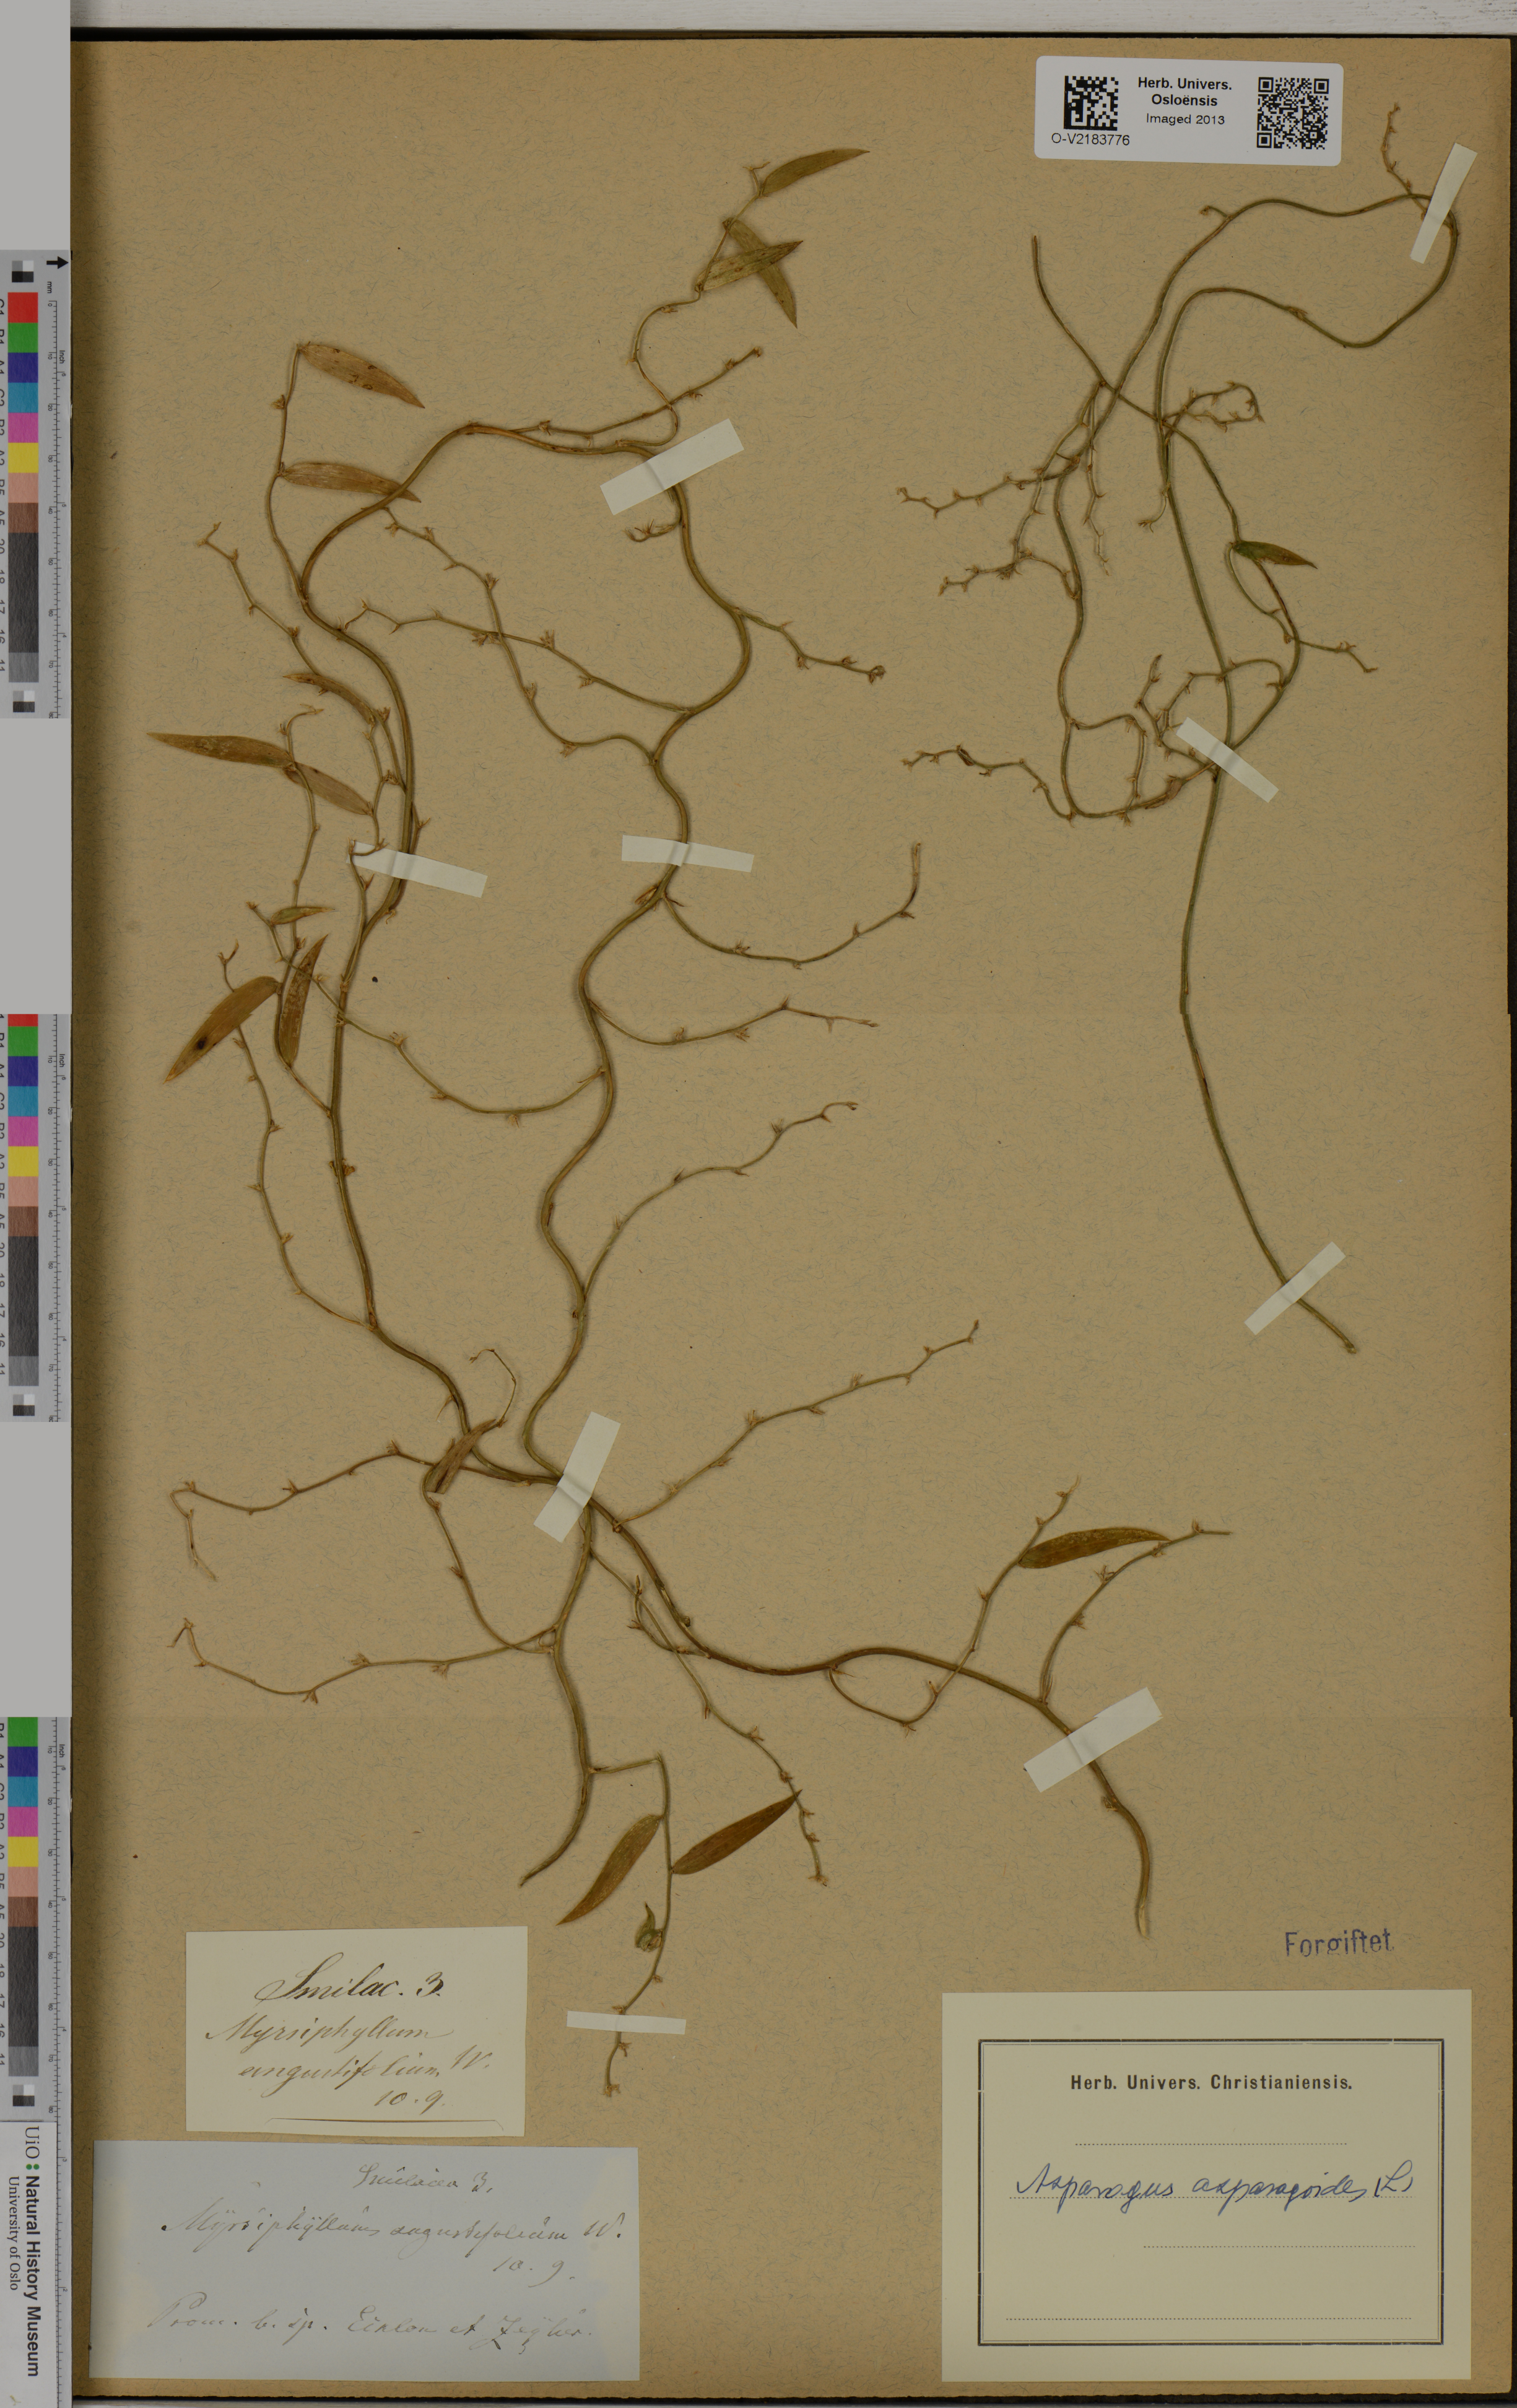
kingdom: Plantae
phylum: Tracheophyta
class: Liliopsida
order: Asparagales
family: Asparagaceae
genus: Asparagus
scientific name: Asparagus asparagoides
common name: African asparagus fern
